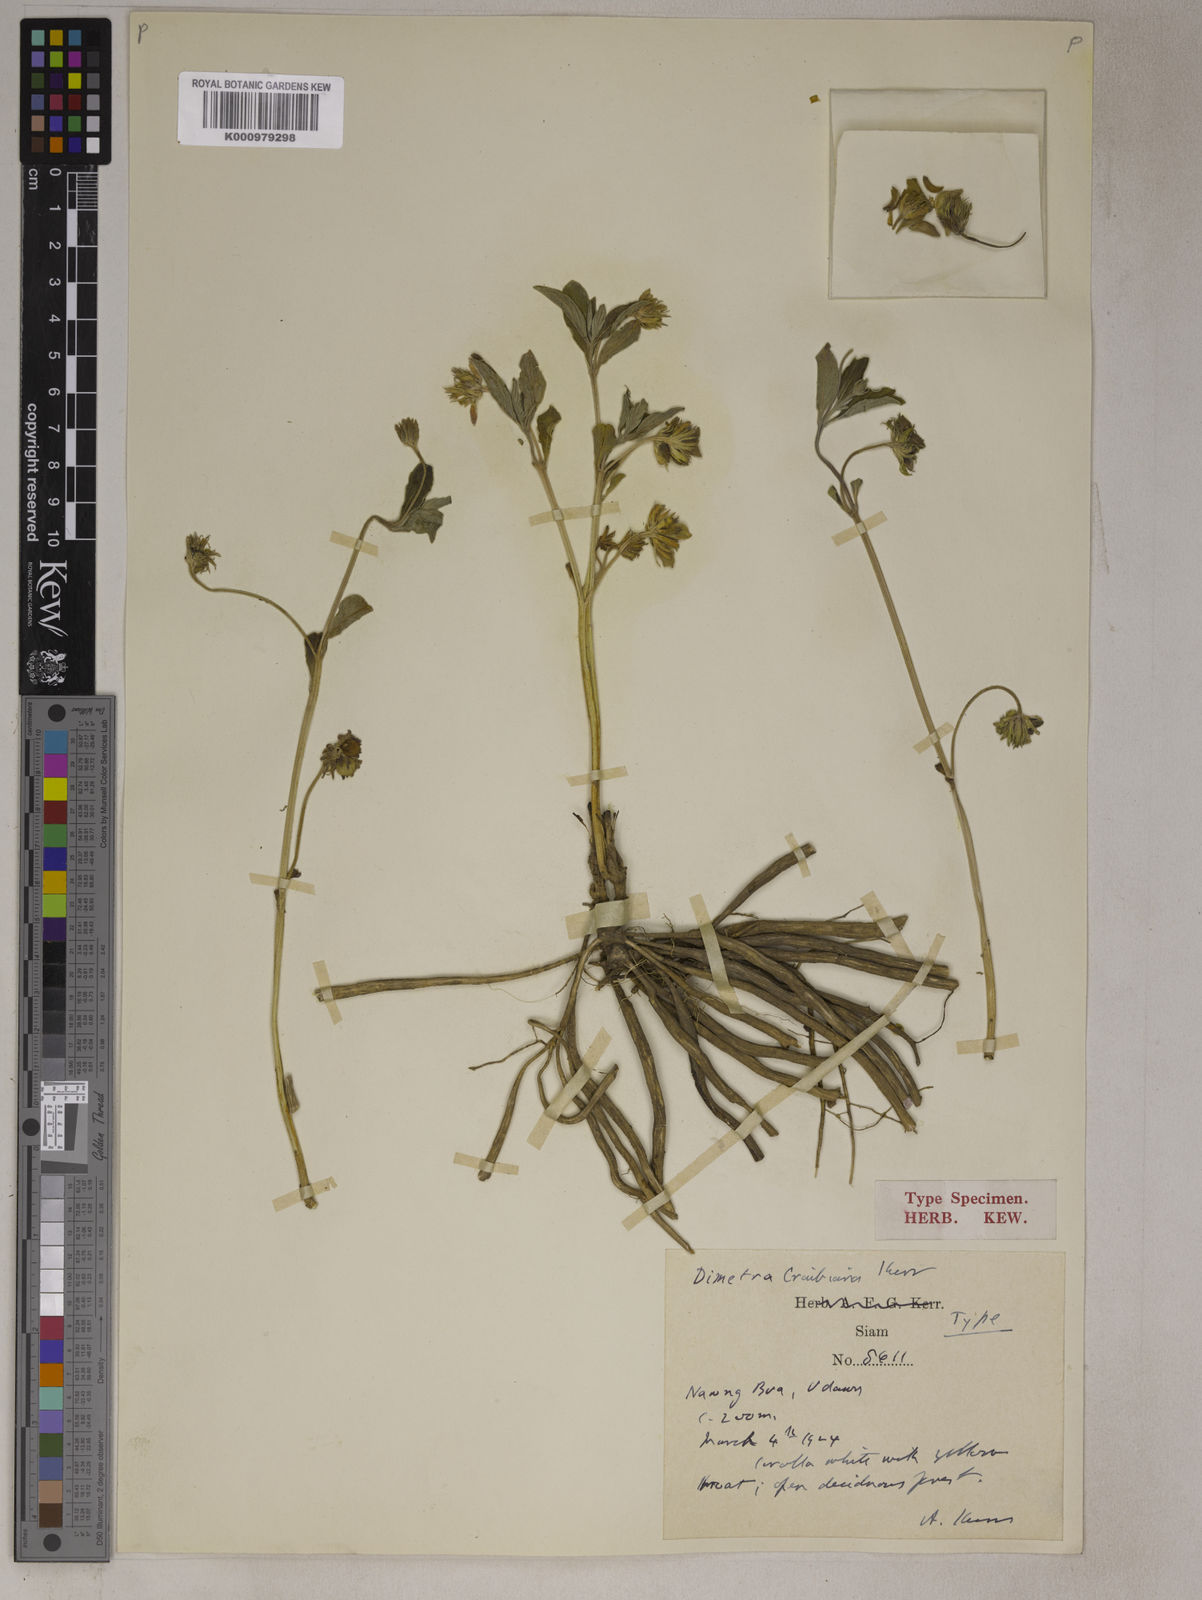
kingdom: Plantae
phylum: Tracheophyta
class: Magnoliopsida
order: Lamiales
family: Oleaceae
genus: Dimetra
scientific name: Dimetra craibiana
